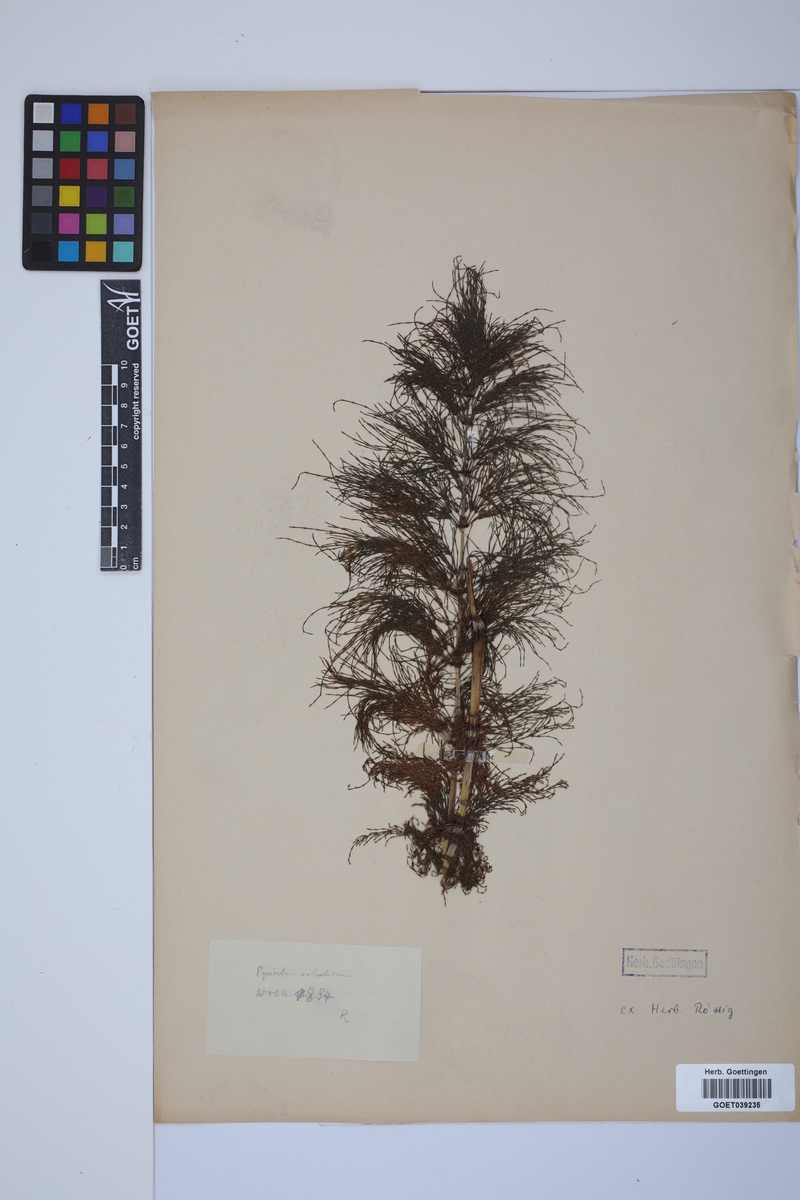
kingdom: Plantae
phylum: Tracheophyta
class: Polypodiopsida
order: Equisetales
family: Equisetaceae
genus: Equisetum
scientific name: Equisetum sylvaticum
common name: Wood horsetail
